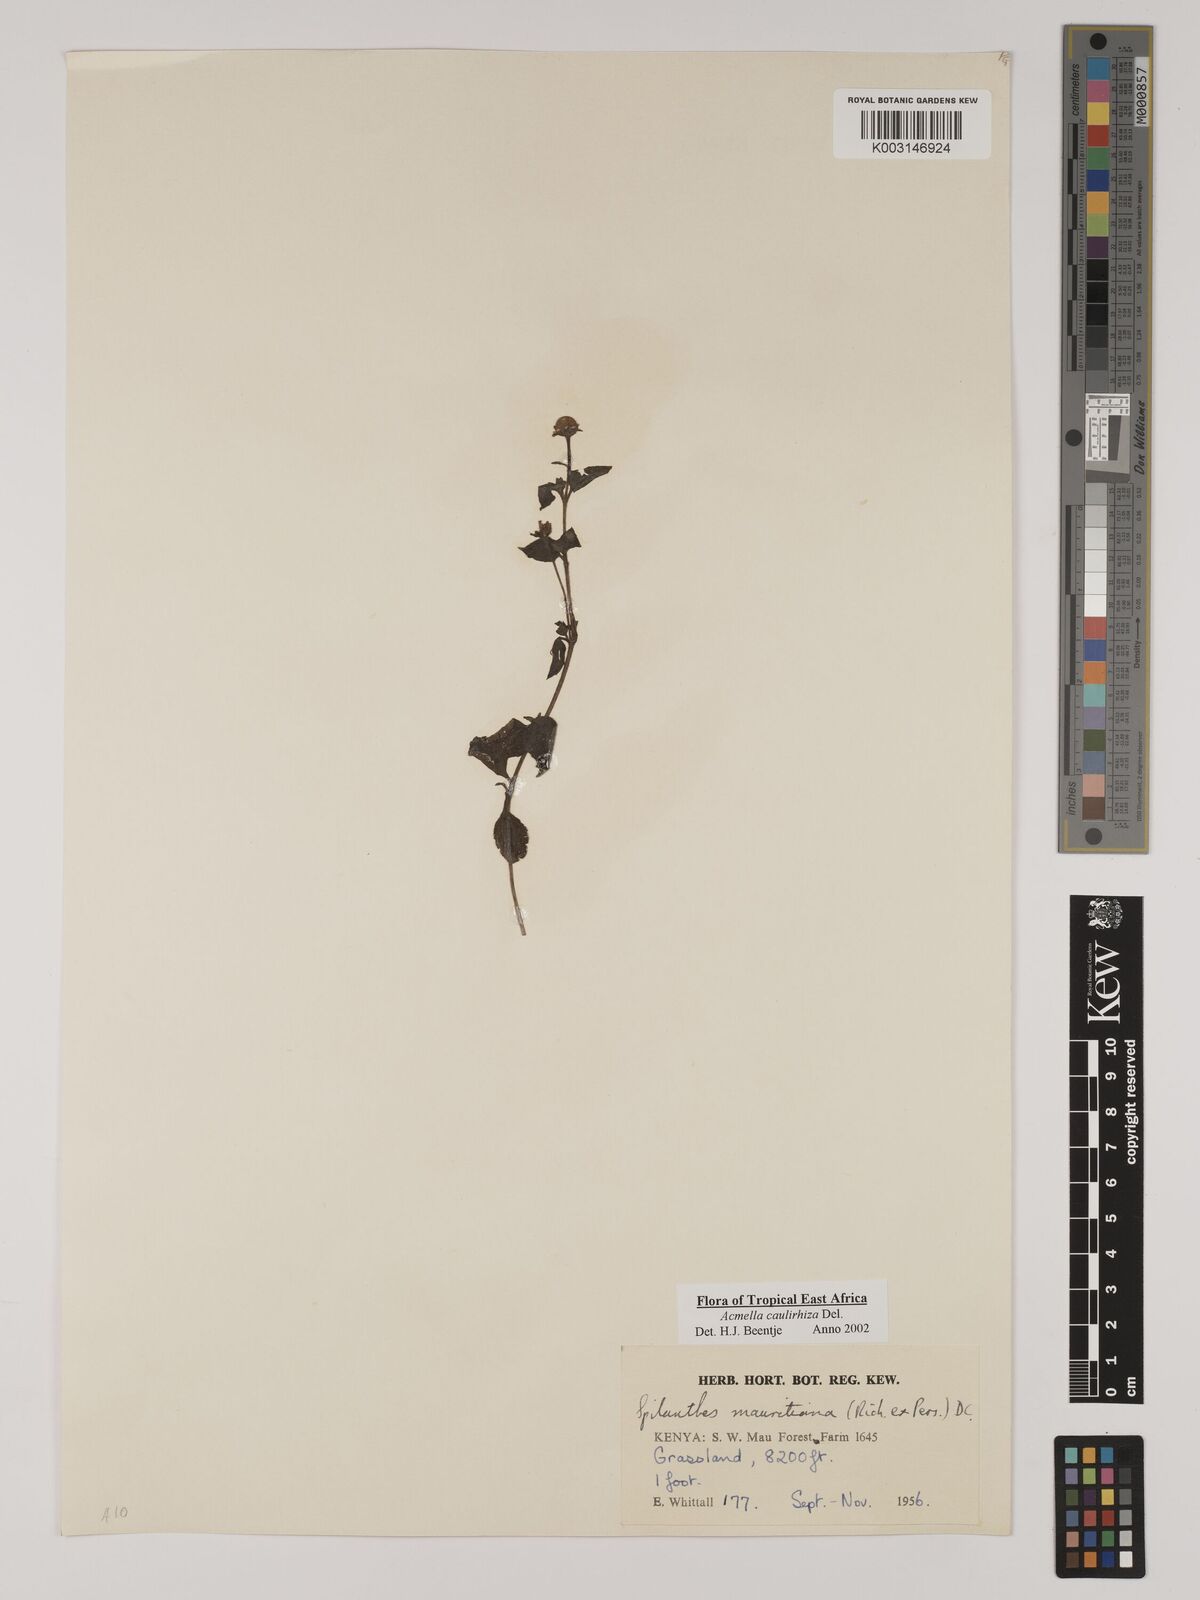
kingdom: Plantae
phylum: Tracheophyta
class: Magnoliopsida
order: Asterales
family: Asteraceae
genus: Acmella
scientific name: Acmella caulirhiza
